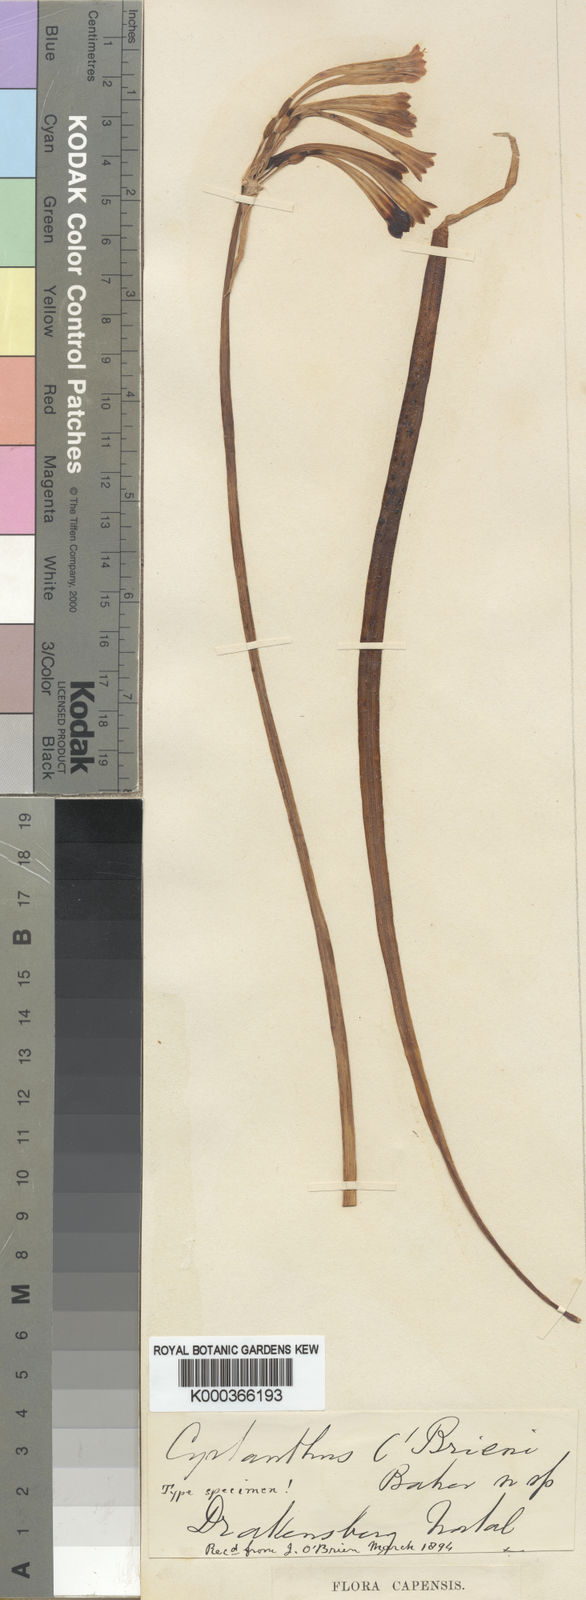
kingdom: Plantae
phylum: Tracheophyta
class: Liliopsida
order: Asparagales
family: Amaryllidaceae
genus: Cyrtanthus
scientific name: Cyrtanthus obrienii
